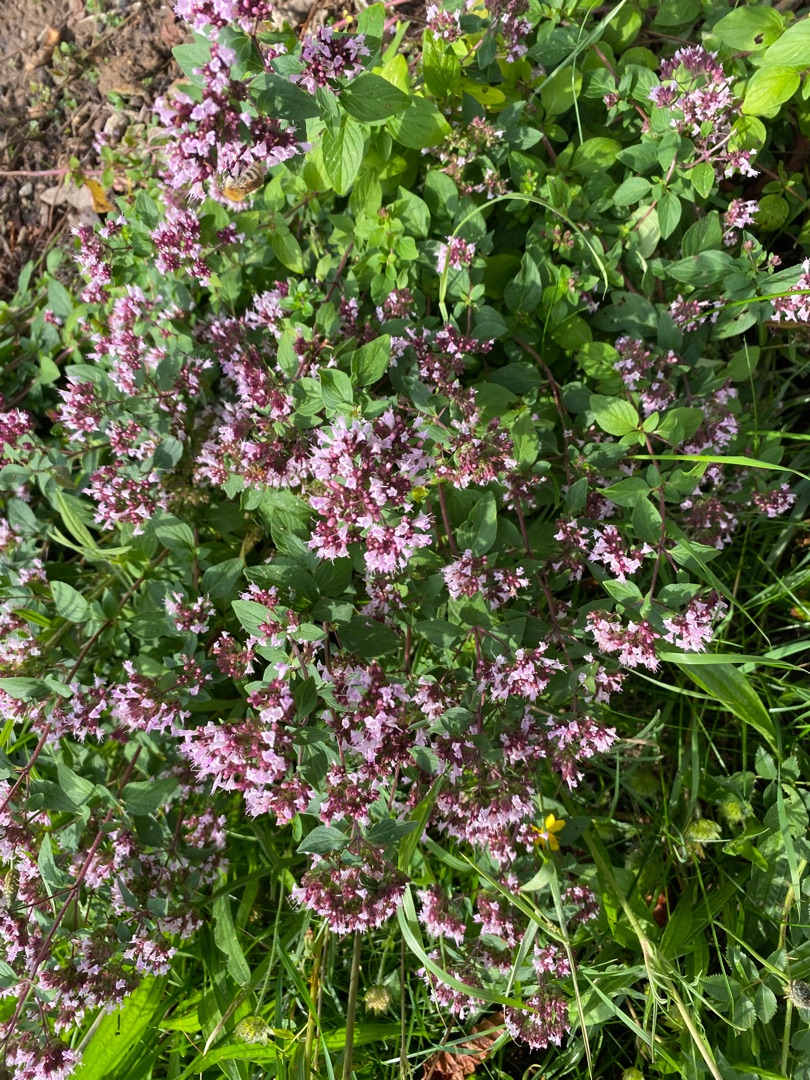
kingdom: Plantae
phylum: Tracheophyta
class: Magnoliopsida
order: Lamiales
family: Lamiaceae
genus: Origanum
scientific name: Origanum vulgare
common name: Merian
